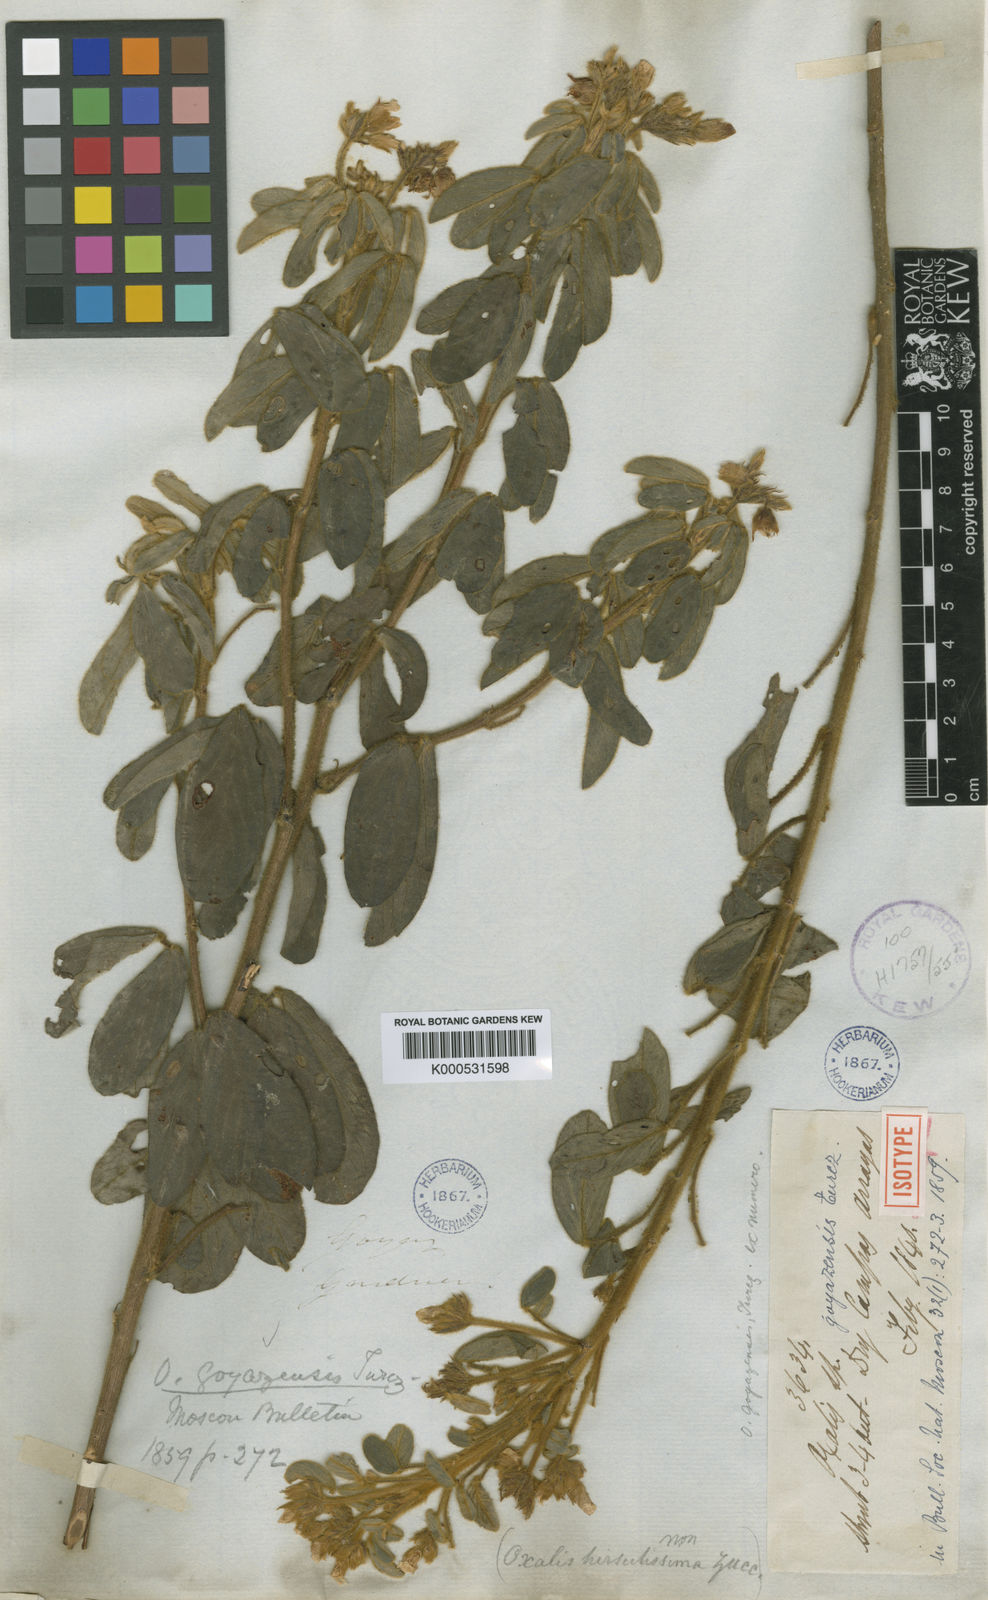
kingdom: Plantae
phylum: Tracheophyta
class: Magnoliopsida
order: Oxalidales
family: Oxalidaceae
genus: Oxalis
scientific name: Oxalis goyazensis
